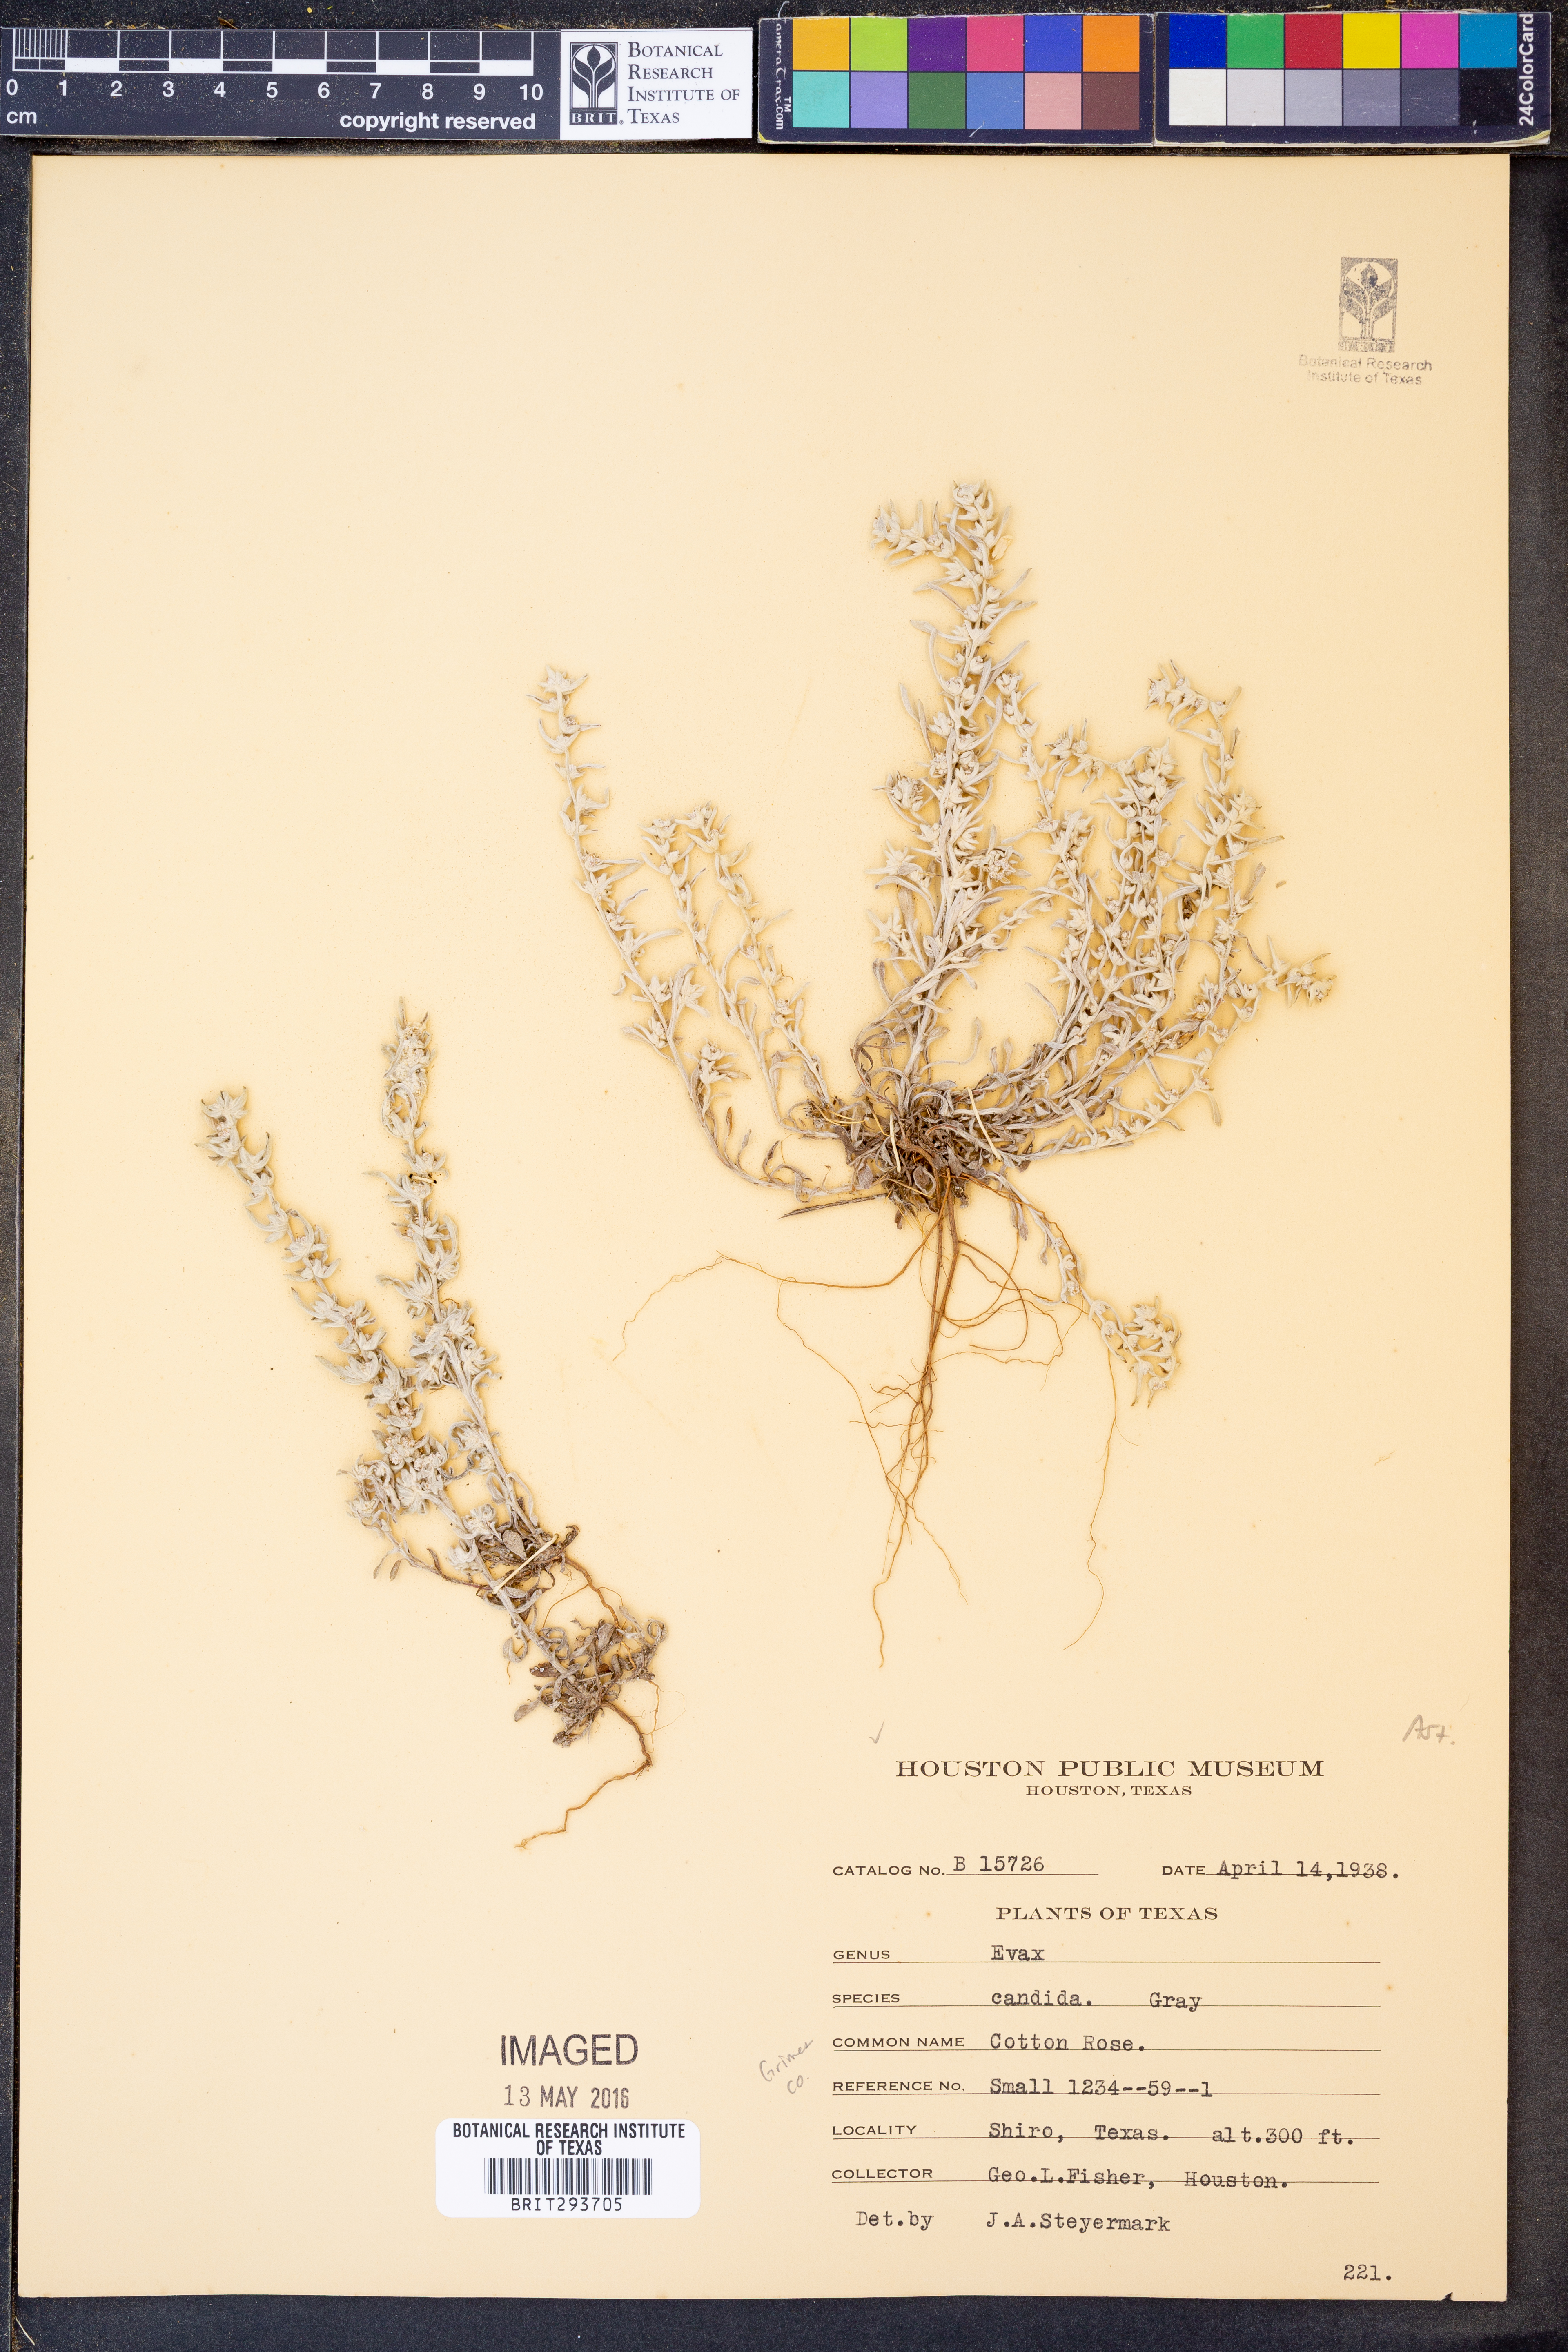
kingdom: Plantae
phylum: Tracheophyta
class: Magnoliopsida
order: Asterales
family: Asteraceae
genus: Diaperia
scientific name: Diaperia candida
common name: Silver rabbit-tobacco
